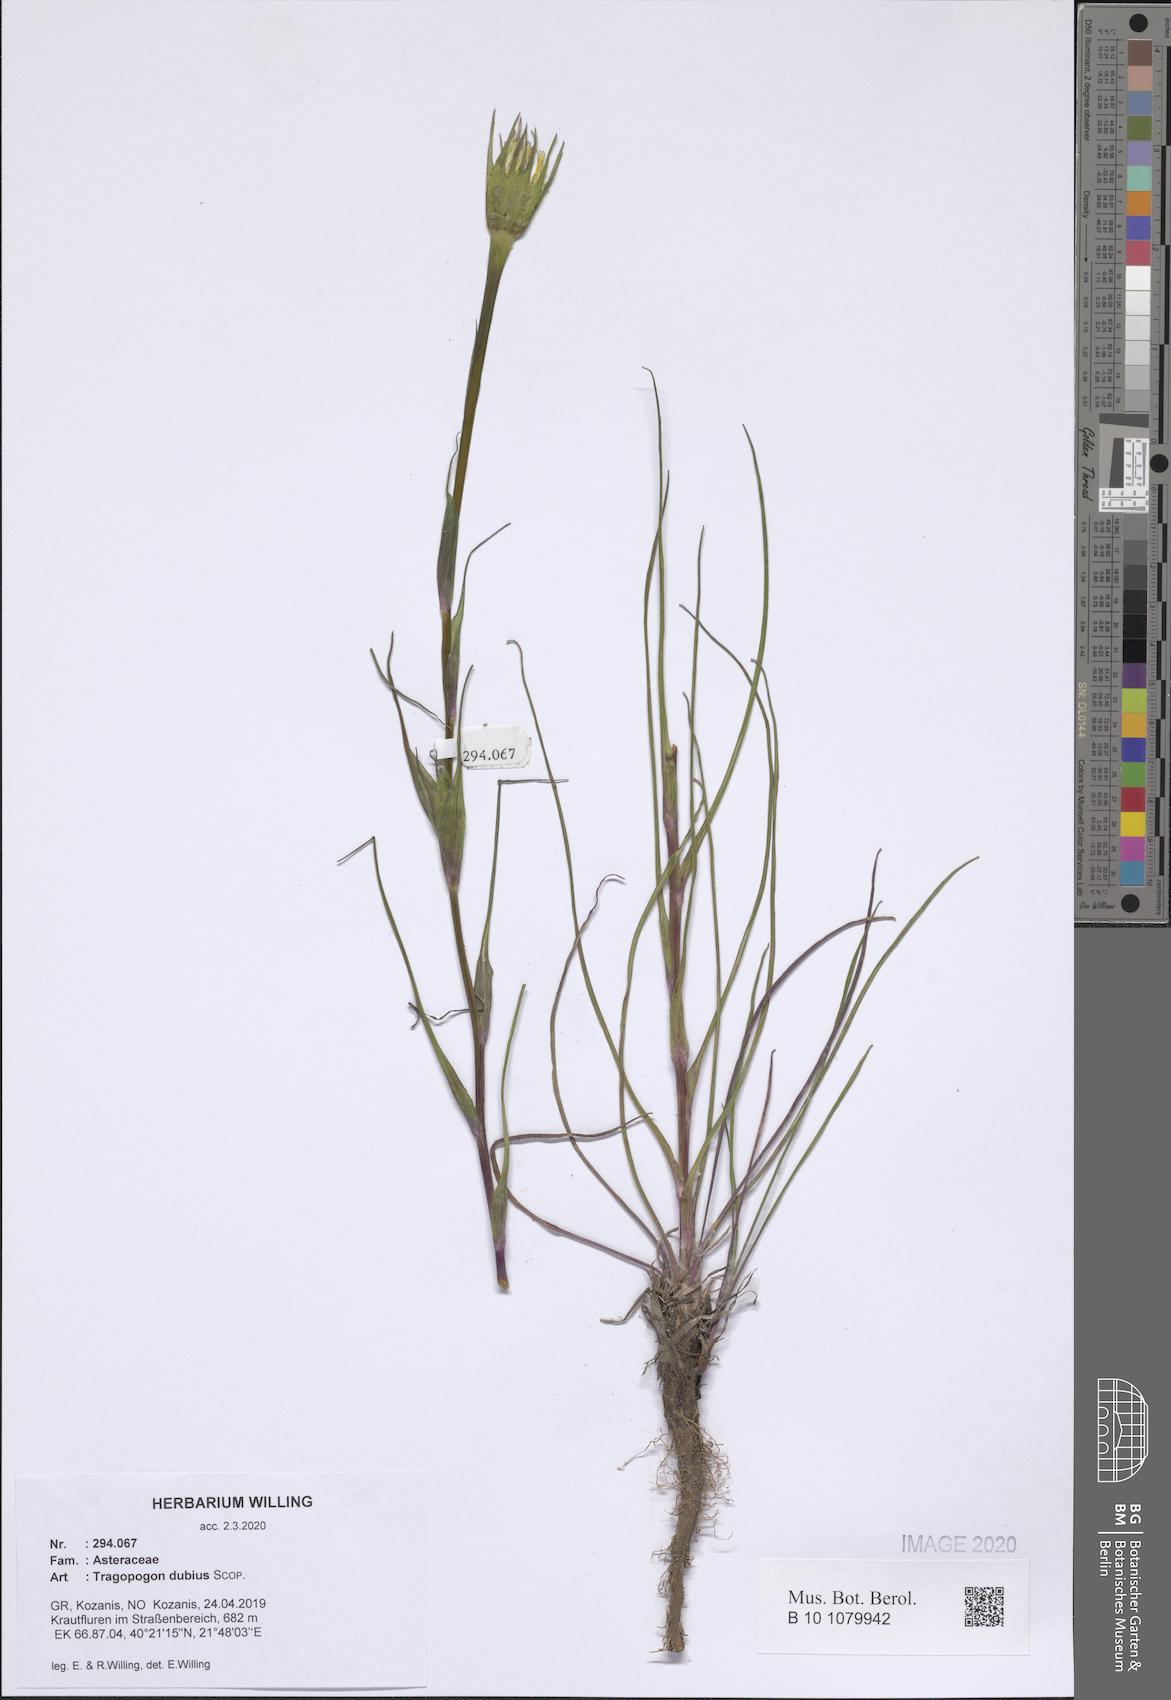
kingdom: Plantae
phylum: Tracheophyta
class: Magnoliopsida
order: Asterales
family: Asteraceae
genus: Tragopogon
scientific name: Tragopogon dubius
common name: Yellow salsify
